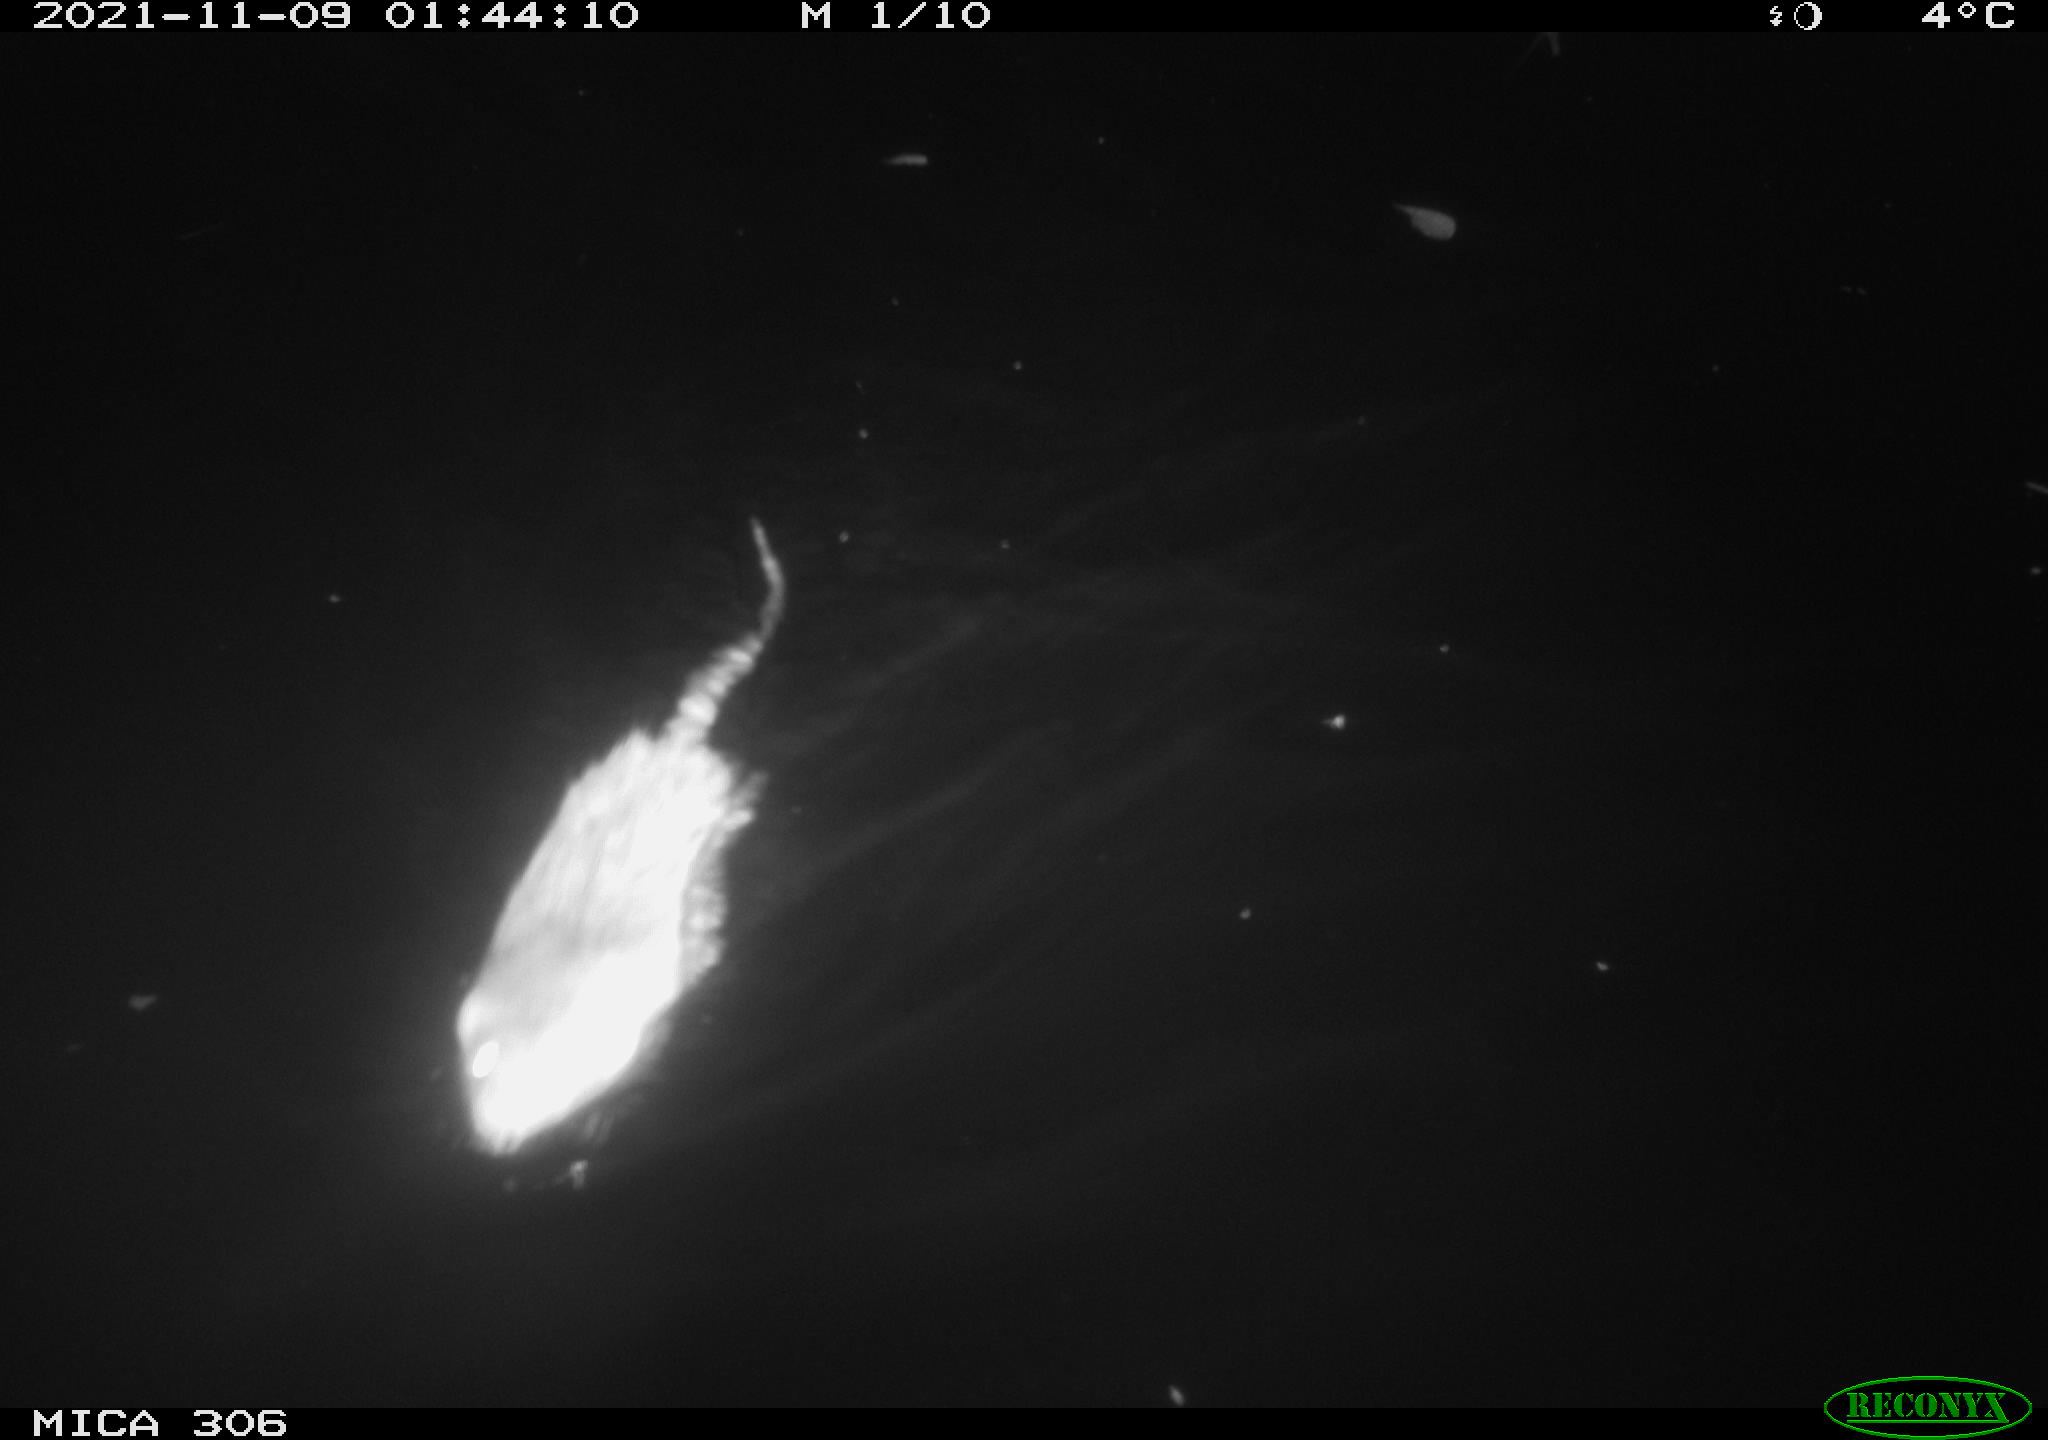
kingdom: Animalia
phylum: Chordata
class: Mammalia
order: Rodentia
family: Muridae
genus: Rattus
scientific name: Rattus norvegicus
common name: Brown rat
